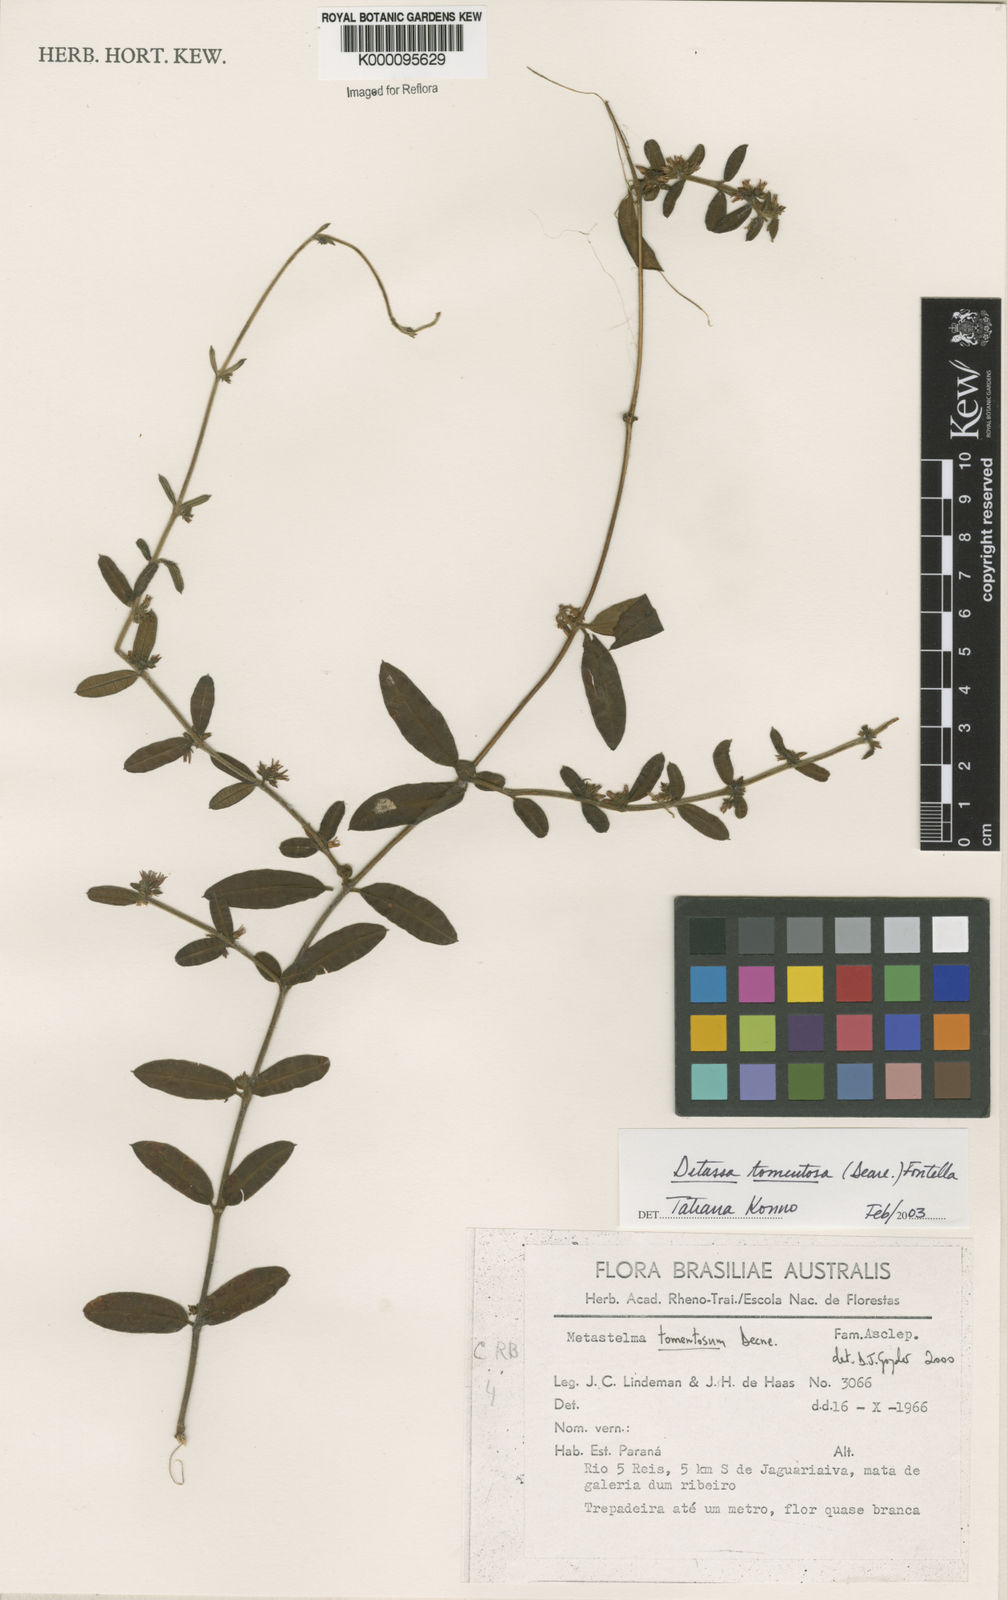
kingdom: Plantae
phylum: Tracheophyta
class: Magnoliopsida
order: Gentianales
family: Apocynaceae
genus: Ditassa
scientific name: Ditassa tomentosa
